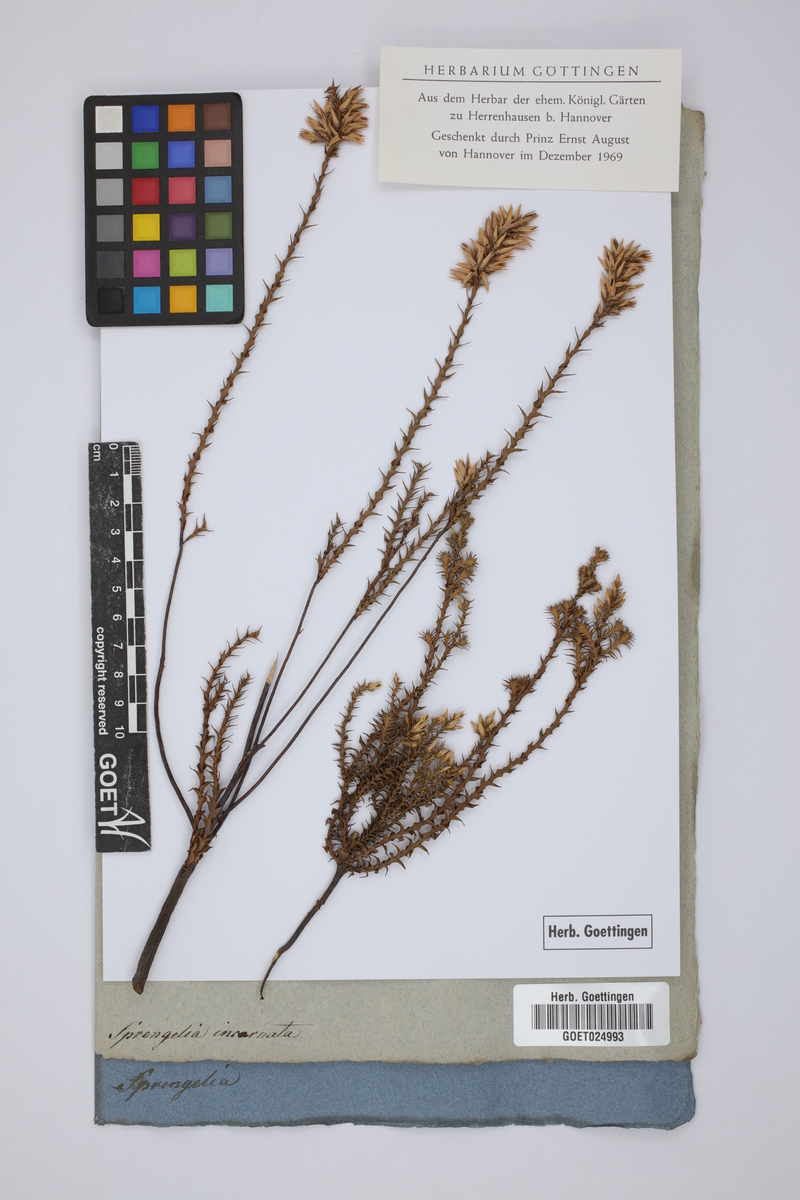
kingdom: Plantae
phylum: Tracheophyta
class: Magnoliopsida
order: Ericales
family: Ericaceae
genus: Sprengelia
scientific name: Sprengelia incarnata
